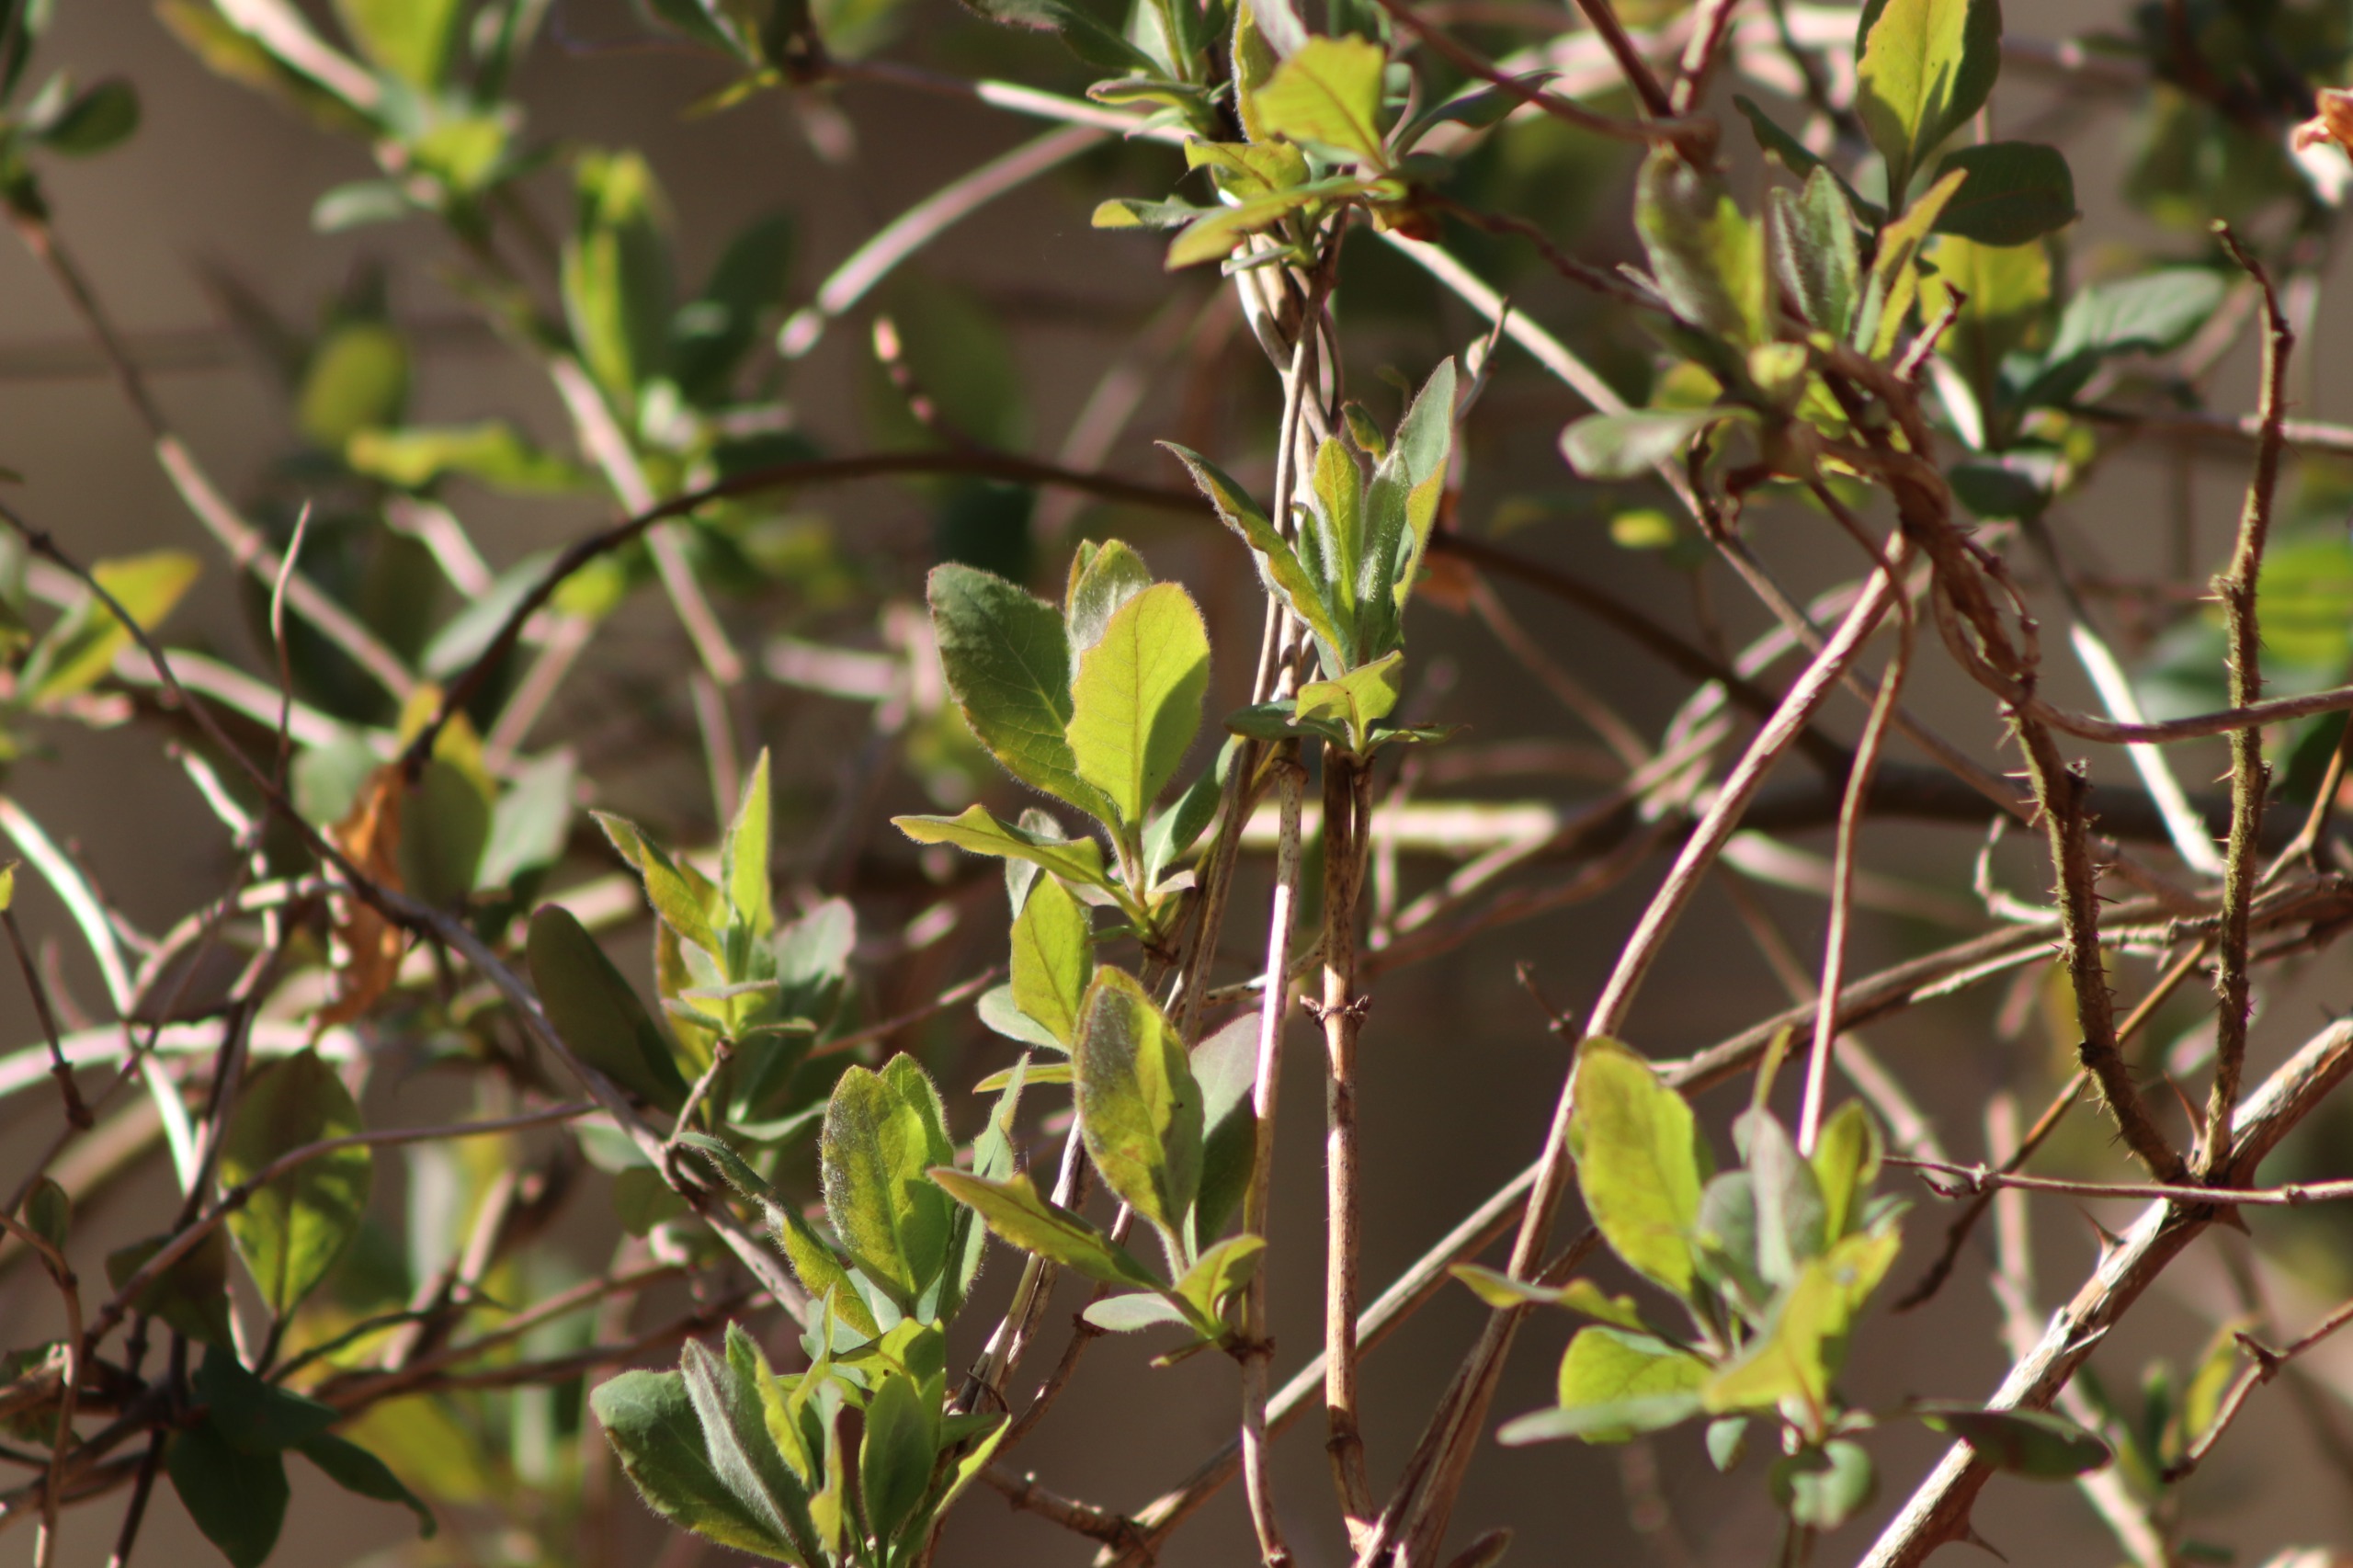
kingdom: Plantae
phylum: Tracheophyta
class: Magnoliopsida
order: Dipsacales
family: Caprifoliaceae
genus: Lonicera
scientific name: Lonicera periclymenum
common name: Almindelig gedeblad
